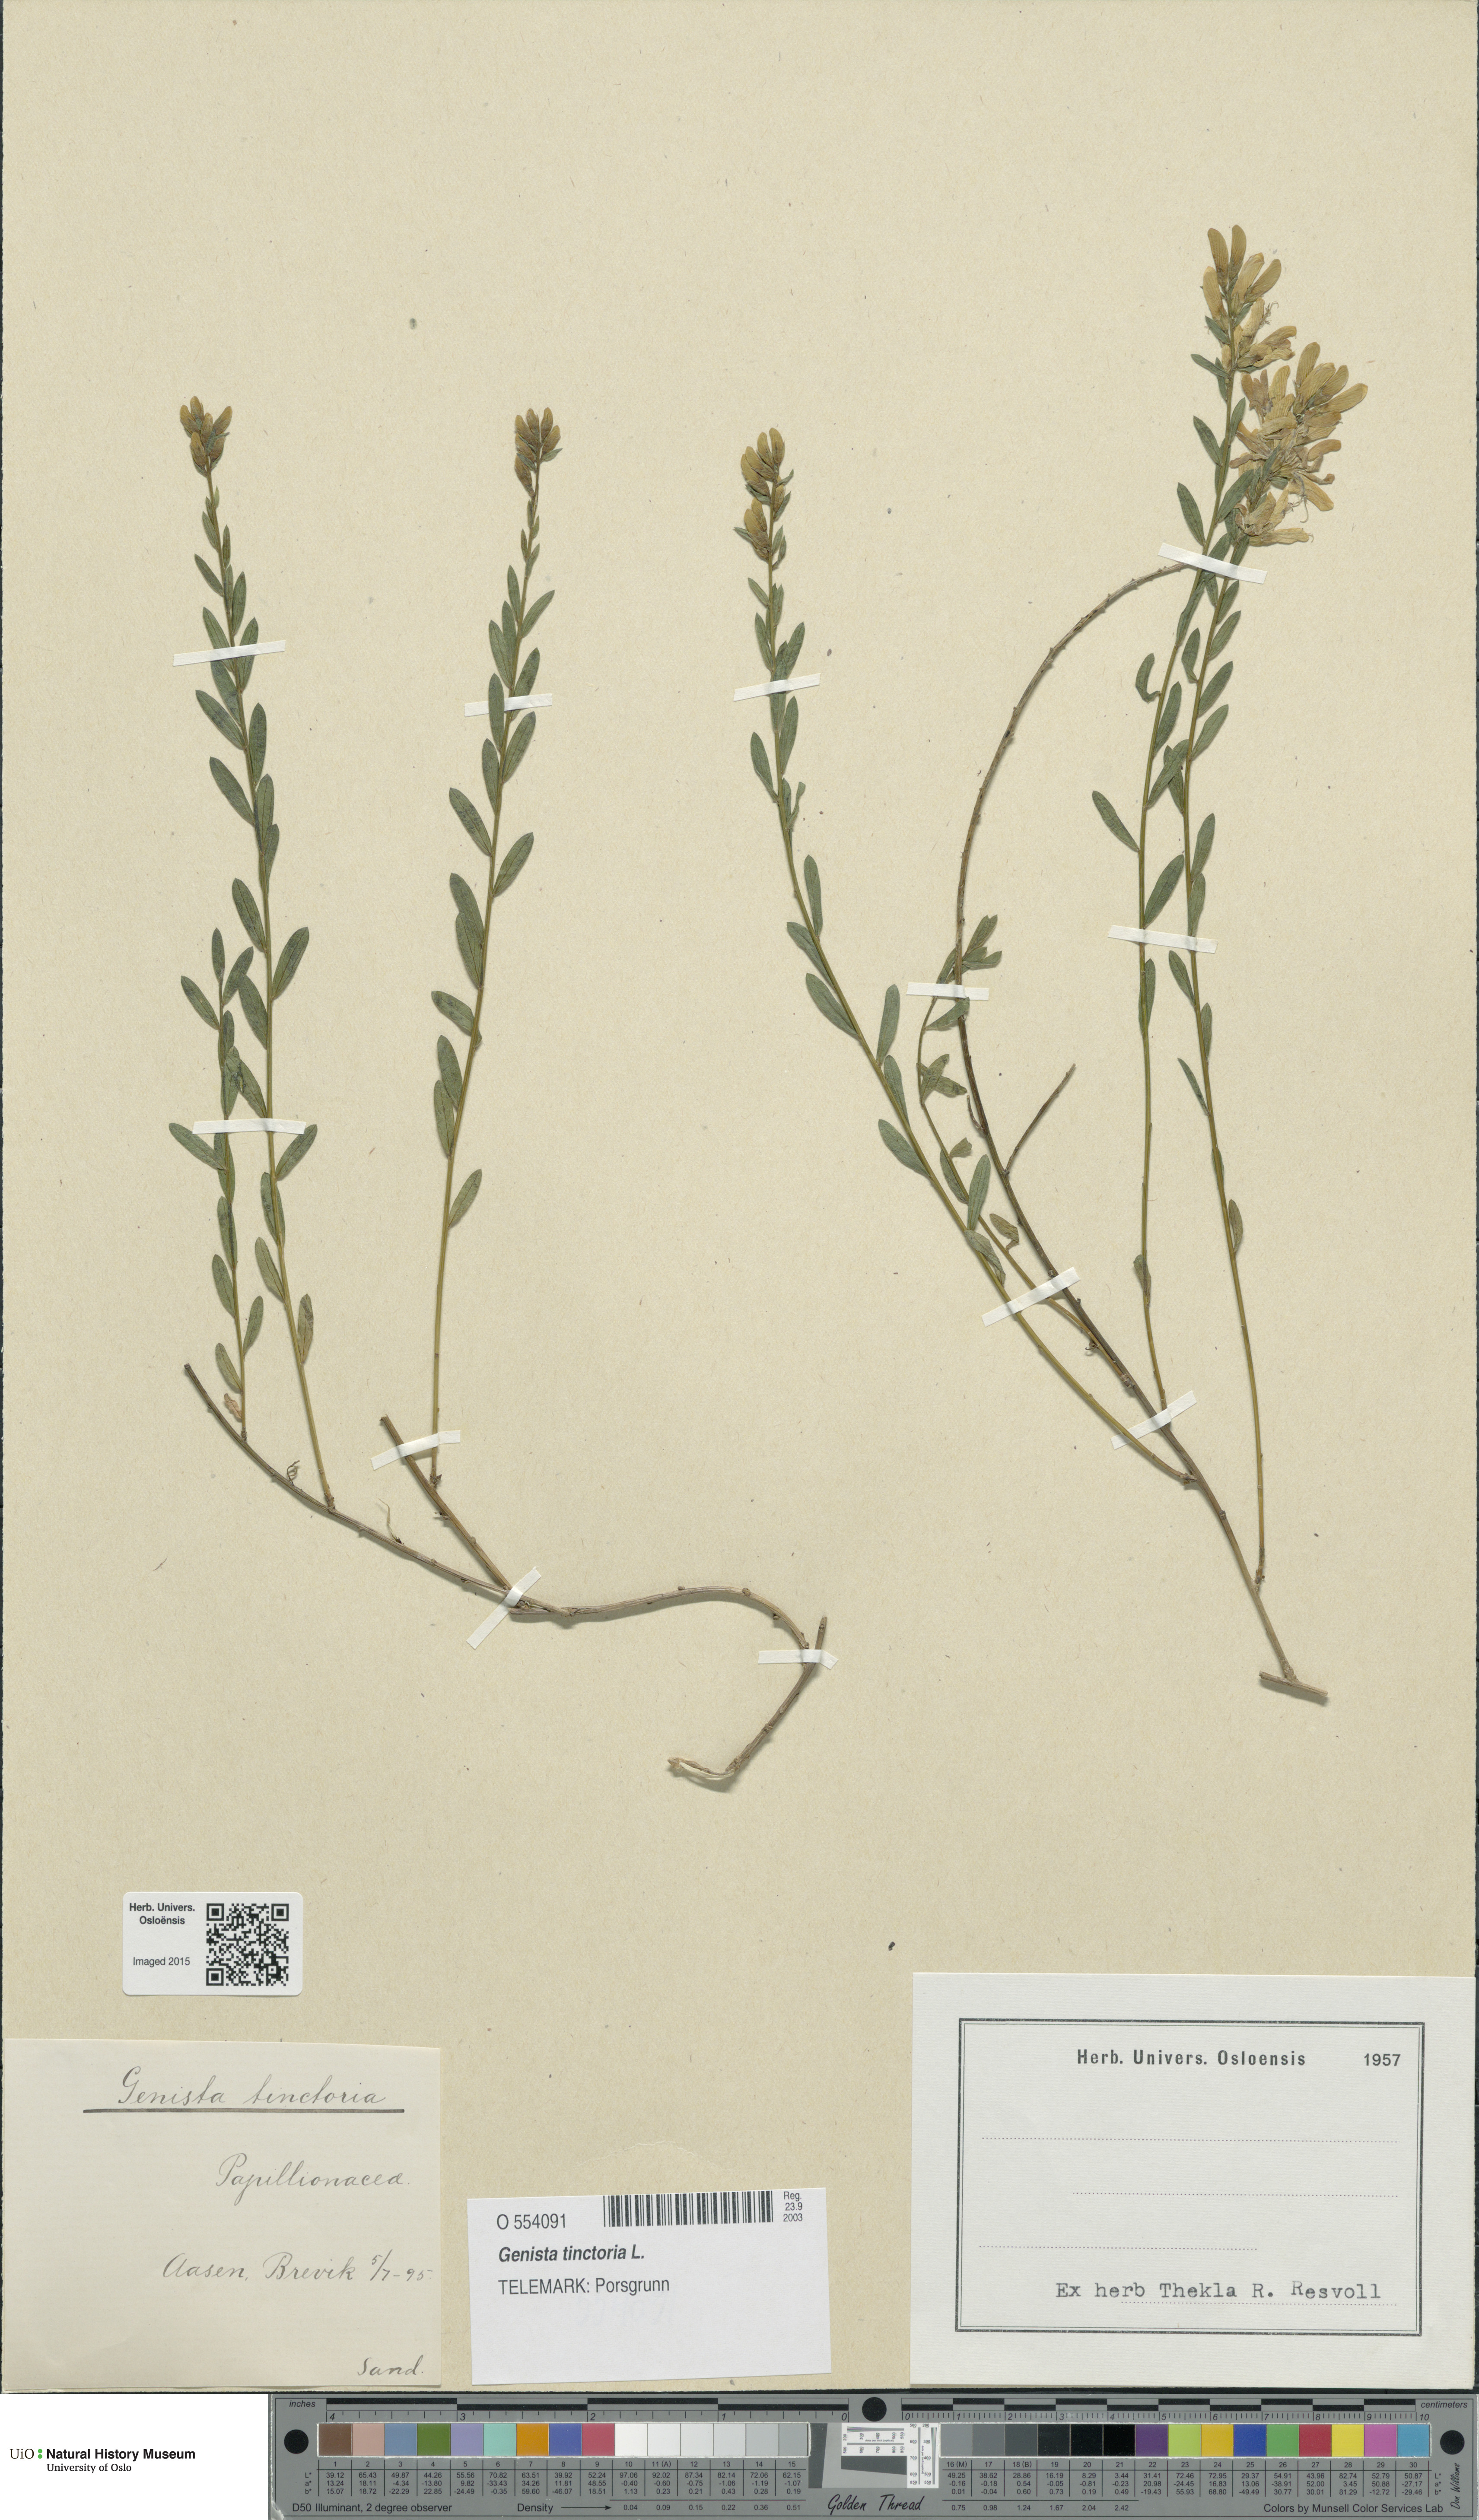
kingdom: Plantae
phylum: Tracheophyta
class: Magnoliopsida
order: Fabales
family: Fabaceae
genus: Genista
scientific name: Genista tinctoria
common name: Dyer's greenweed
